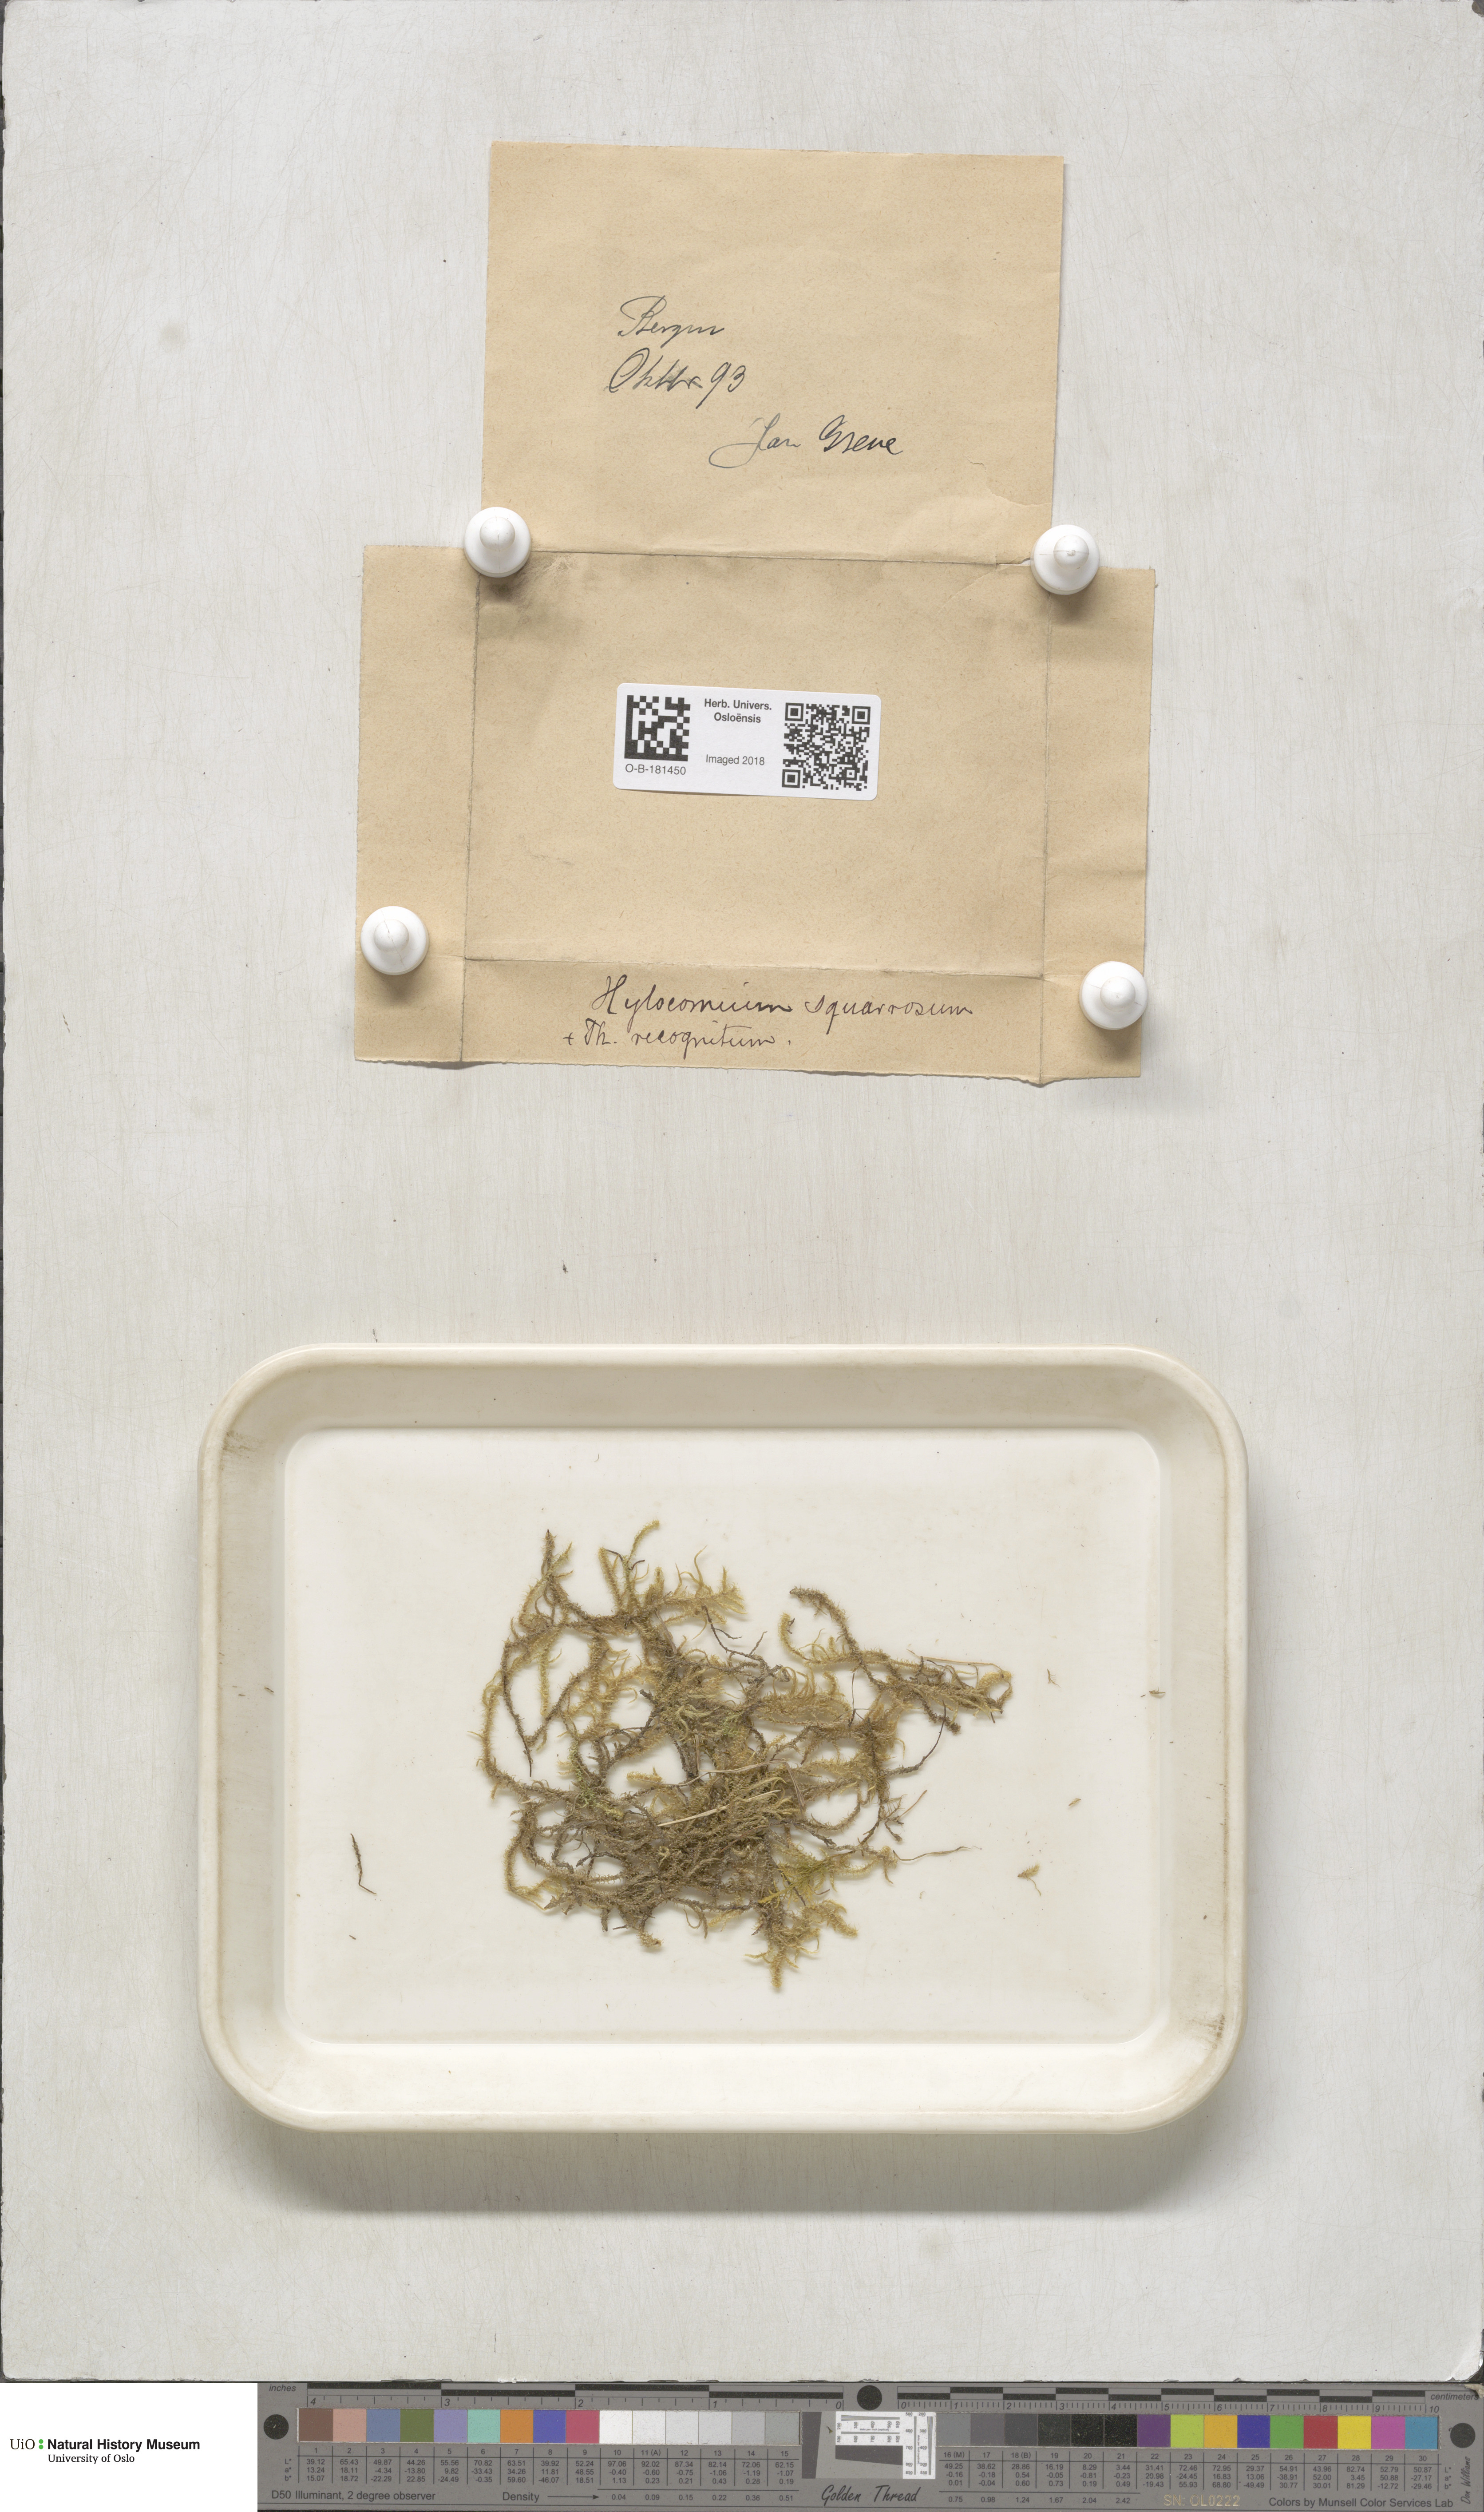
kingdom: Plantae
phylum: Bryophyta
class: Bryopsida
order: Hypnales
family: Hylocomiaceae
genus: Rhytidiadelphus
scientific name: Rhytidiadelphus squarrosus
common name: Springy turf-moss
